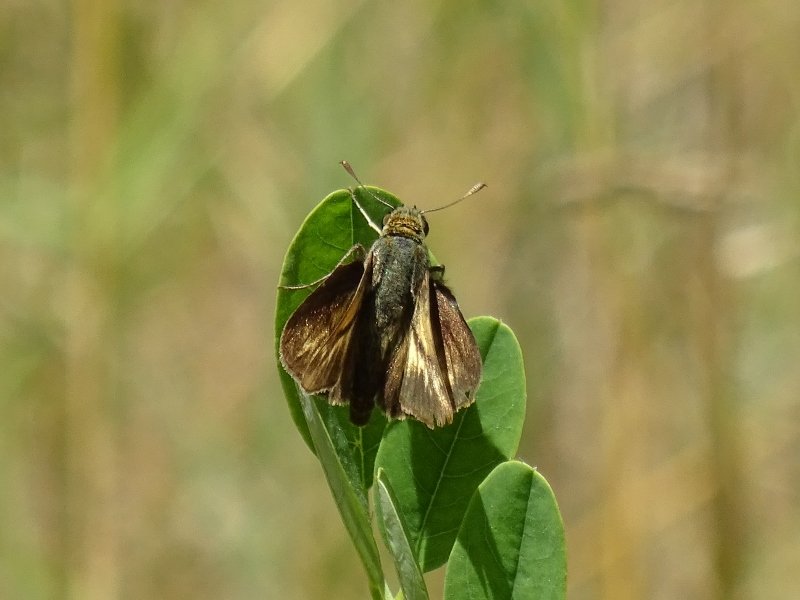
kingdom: Animalia
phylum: Arthropoda
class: Insecta
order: Lepidoptera
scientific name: Lepidoptera
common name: Butterflies
